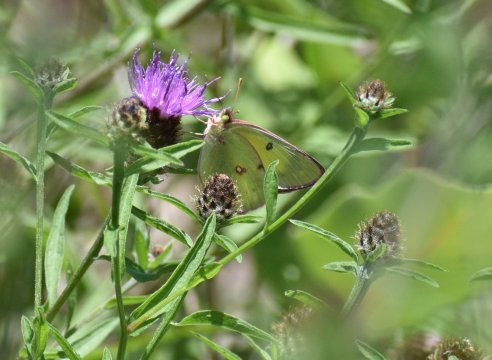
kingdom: Animalia
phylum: Arthropoda
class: Insecta
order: Lepidoptera
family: Pieridae
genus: Colias
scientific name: Colias philodice
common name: Clouded Sulphur
